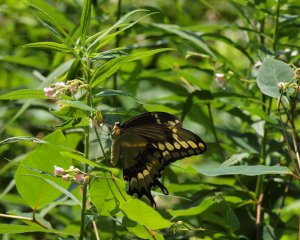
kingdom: Animalia
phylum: Arthropoda
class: Insecta
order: Lepidoptera
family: Papilionidae
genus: Papilio
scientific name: Papilio cresphontes
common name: Eastern Giant Swallowtail
